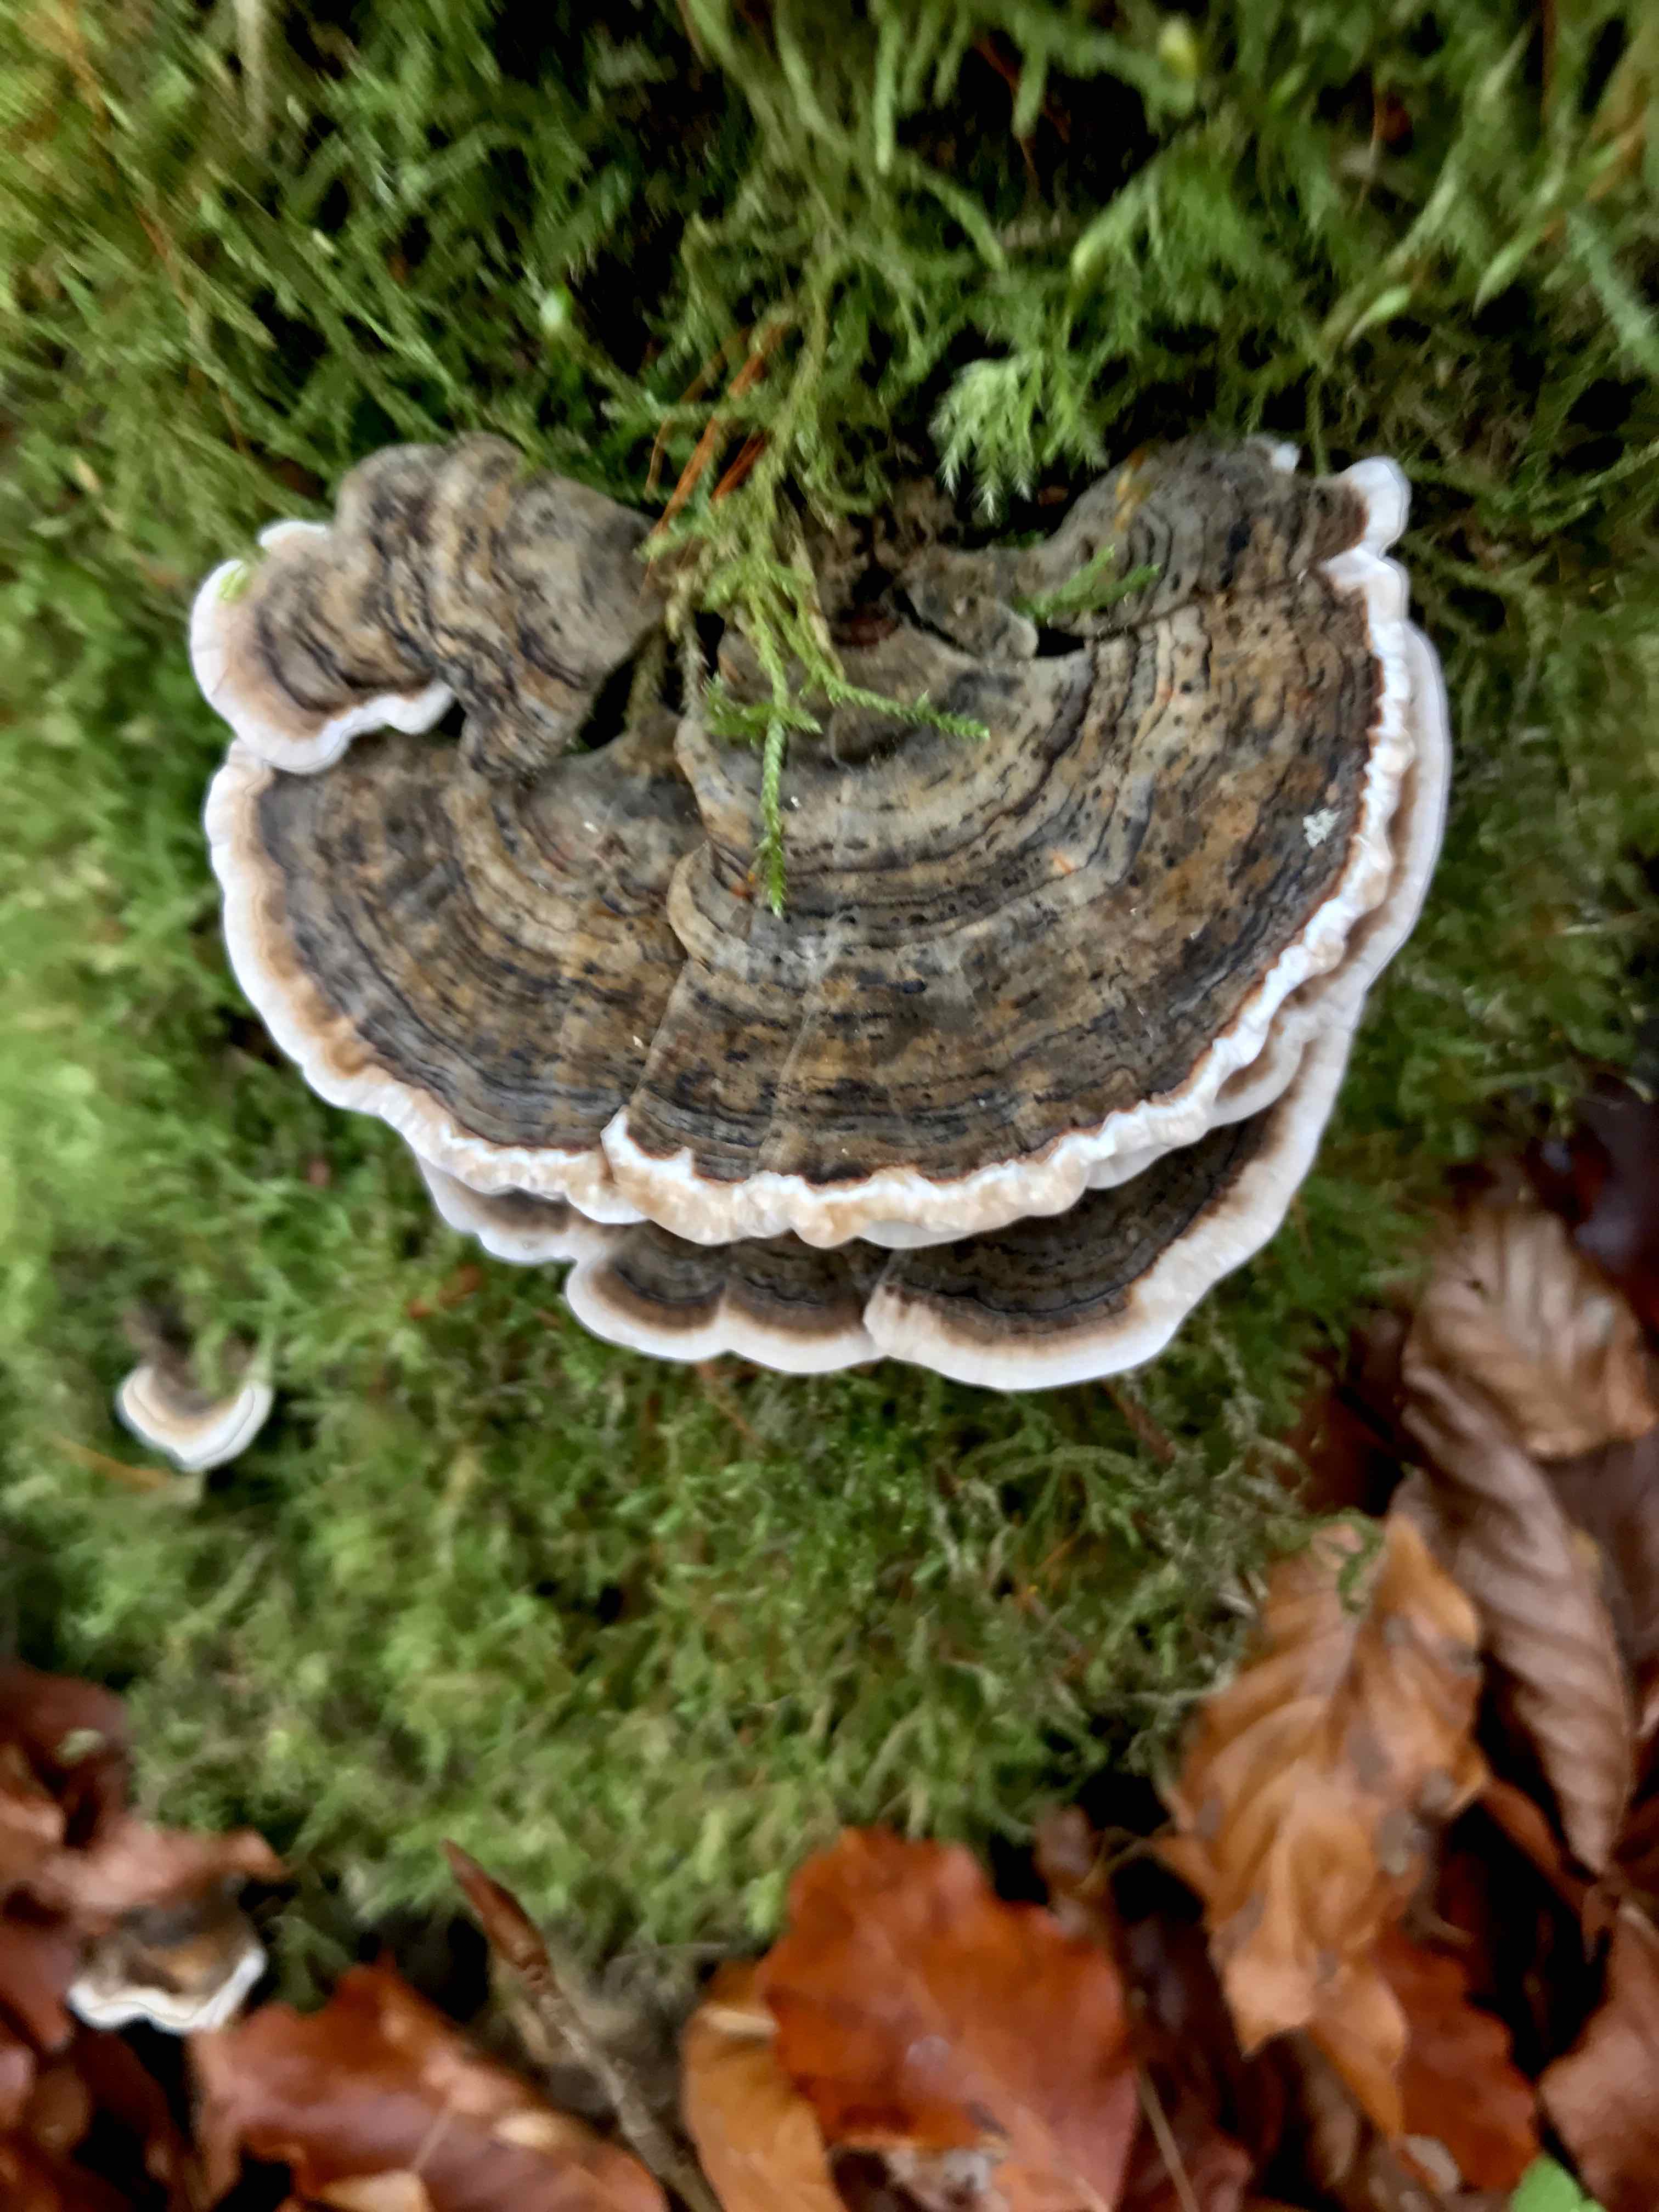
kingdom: Fungi
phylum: Basidiomycota
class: Agaricomycetes
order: Polyporales
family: Polyporaceae
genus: Trametes
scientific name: Trametes versicolor
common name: broget læderporesvamp
